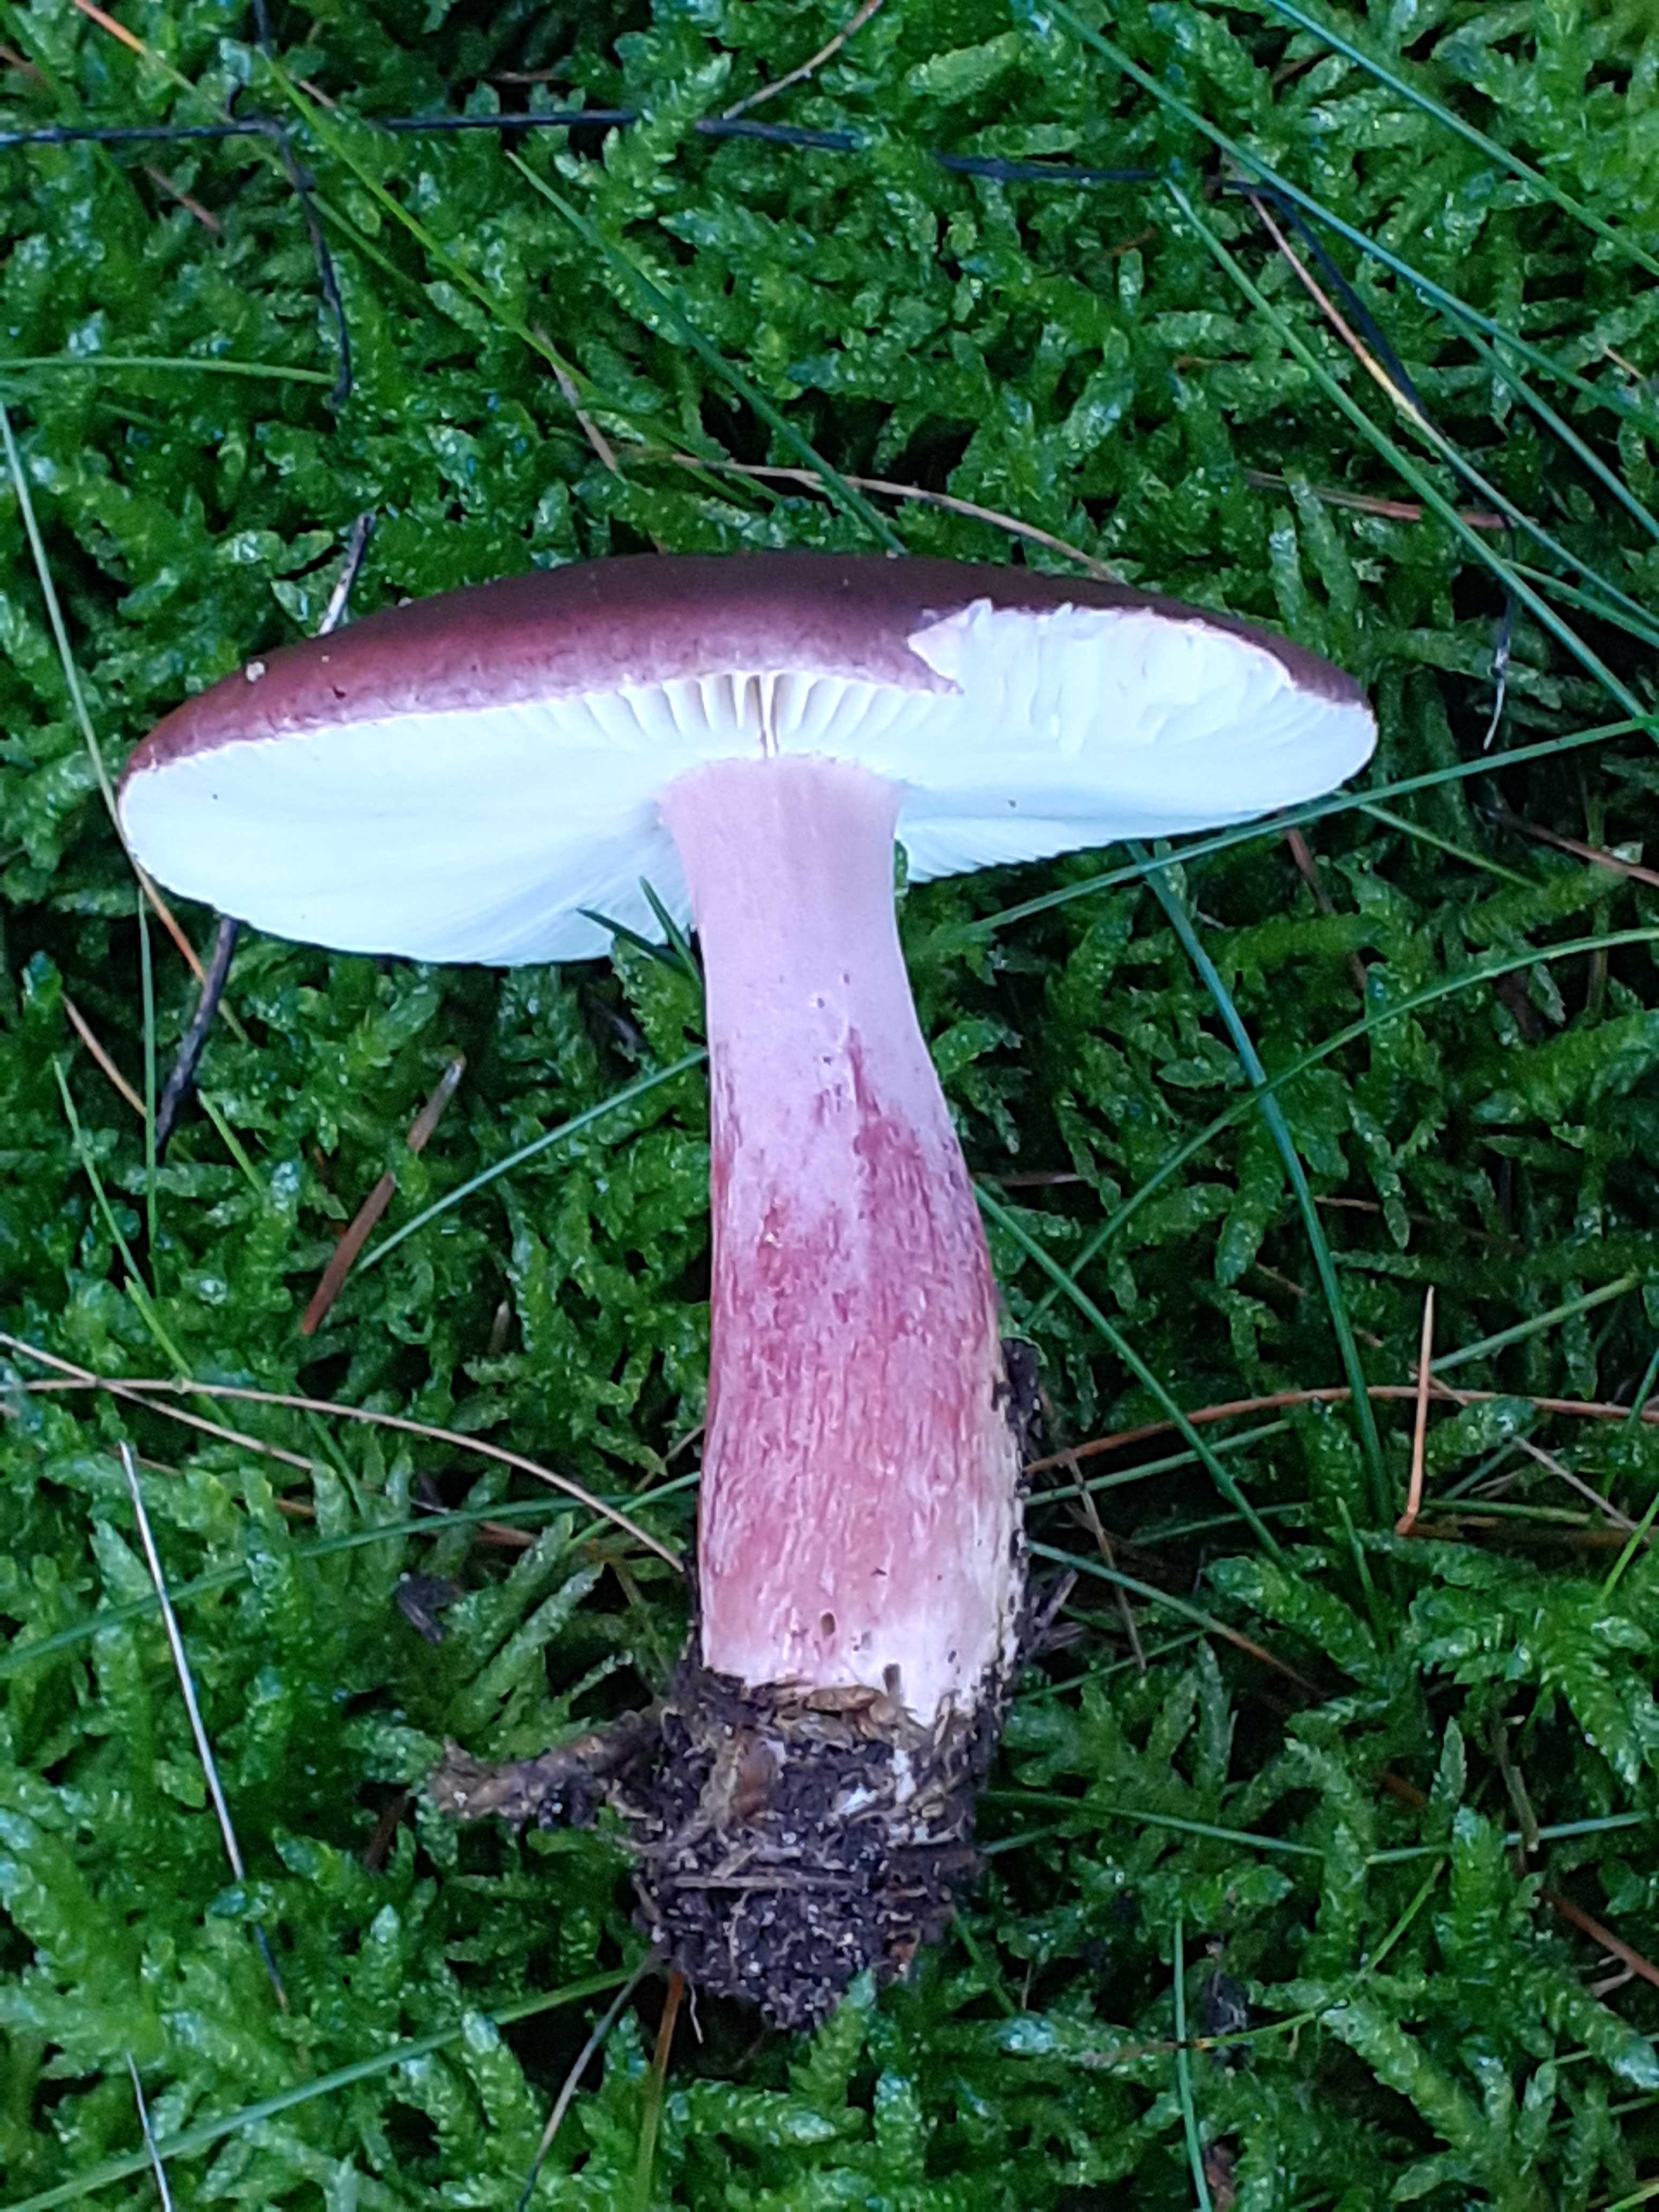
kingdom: Fungi
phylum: Basidiomycota
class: Agaricomycetes
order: Russulales
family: Russulaceae
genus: Russula
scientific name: Russula queletii
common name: Quélets skørhat
